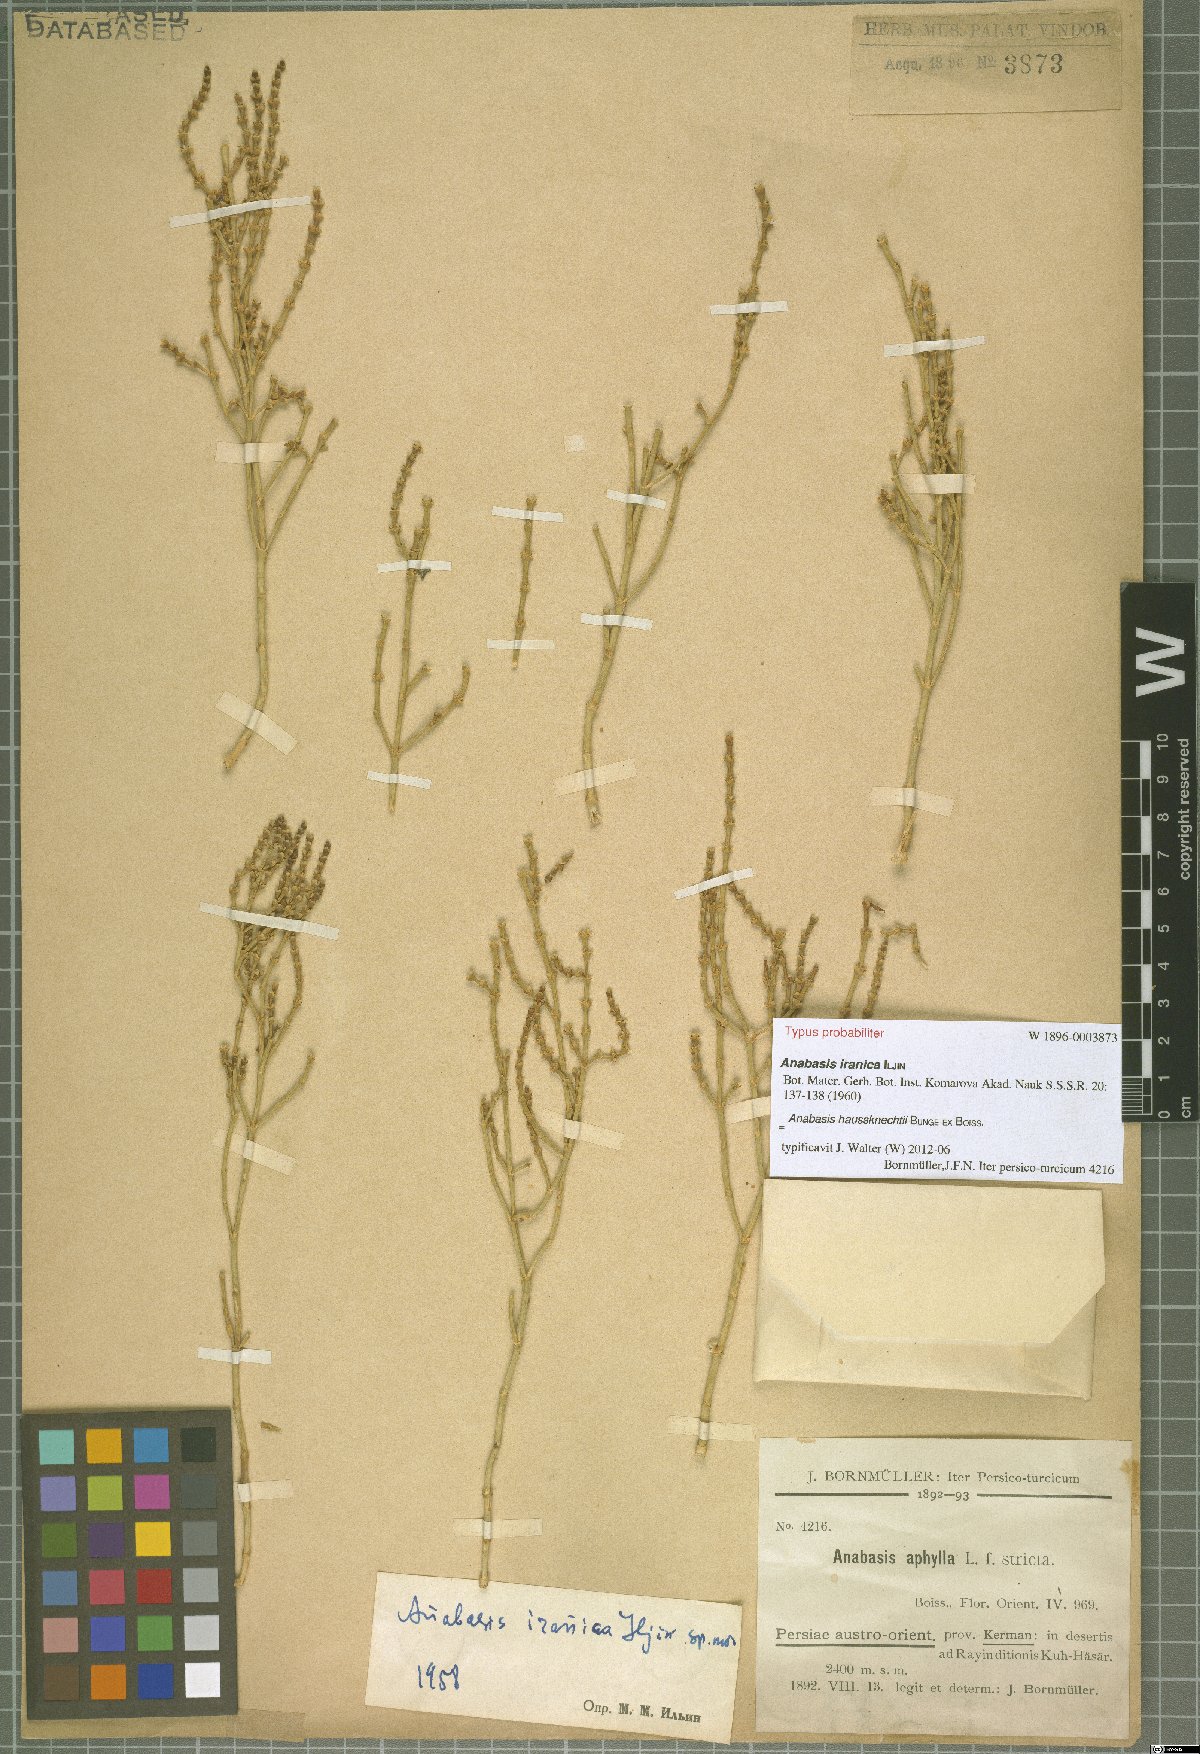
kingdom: Plantae
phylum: Tracheophyta
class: Magnoliopsida
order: Caryophyllales
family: Amaranthaceae
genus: Anabasis
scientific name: Anabasis haussknechtii
